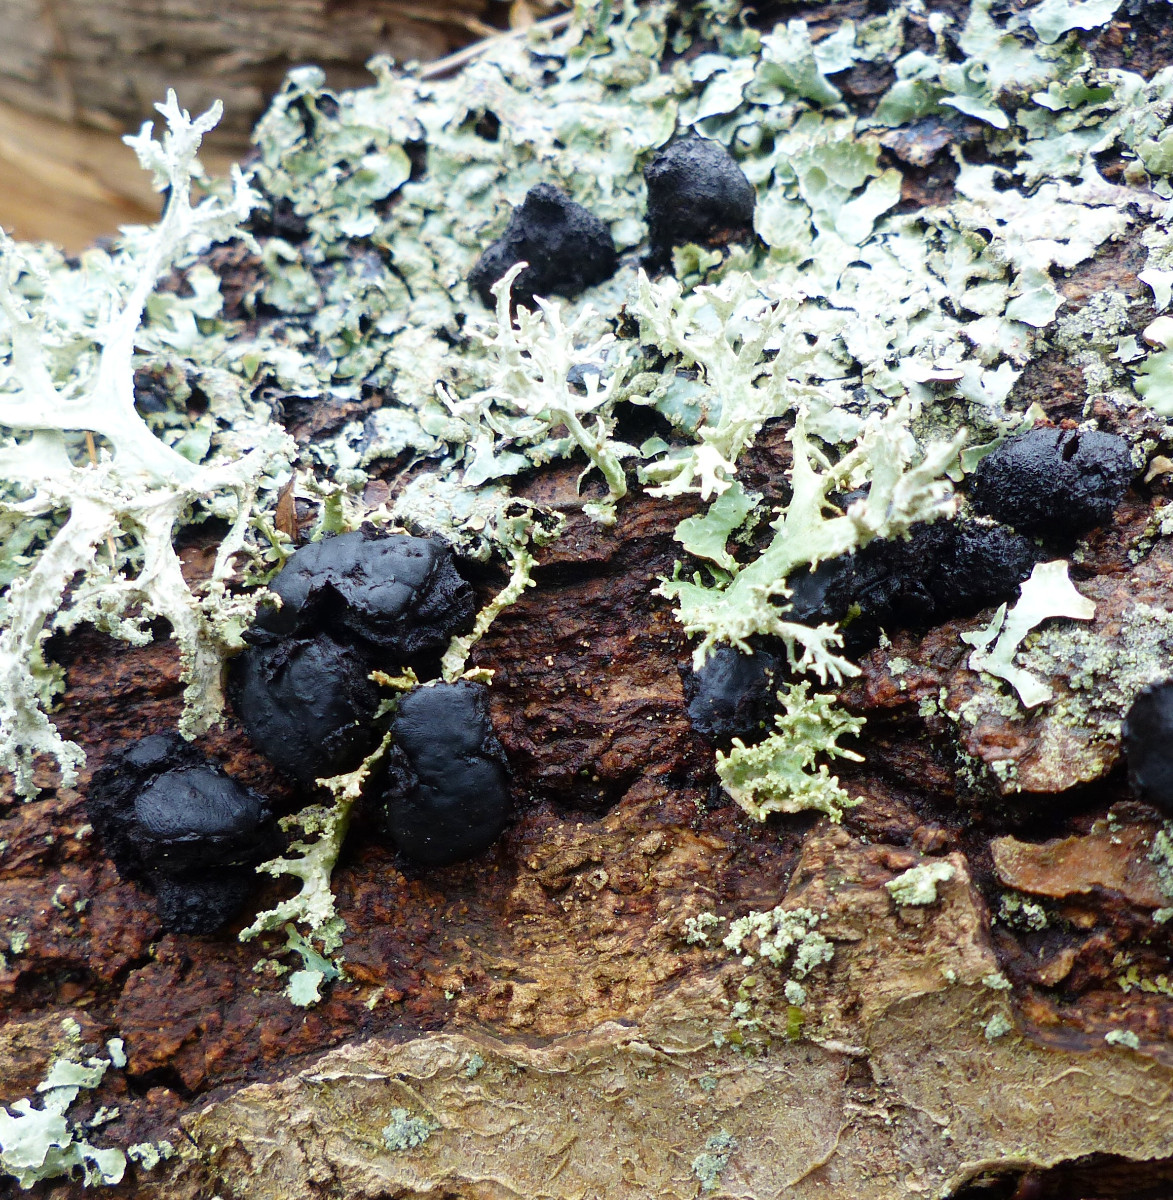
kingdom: Fungi
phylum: Ascomycota
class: Leotiomycetes
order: Phacidiales
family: Phacidiaceae
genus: Bulgaria
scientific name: Bulgaria inquinans
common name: afsmittende topsvamp
